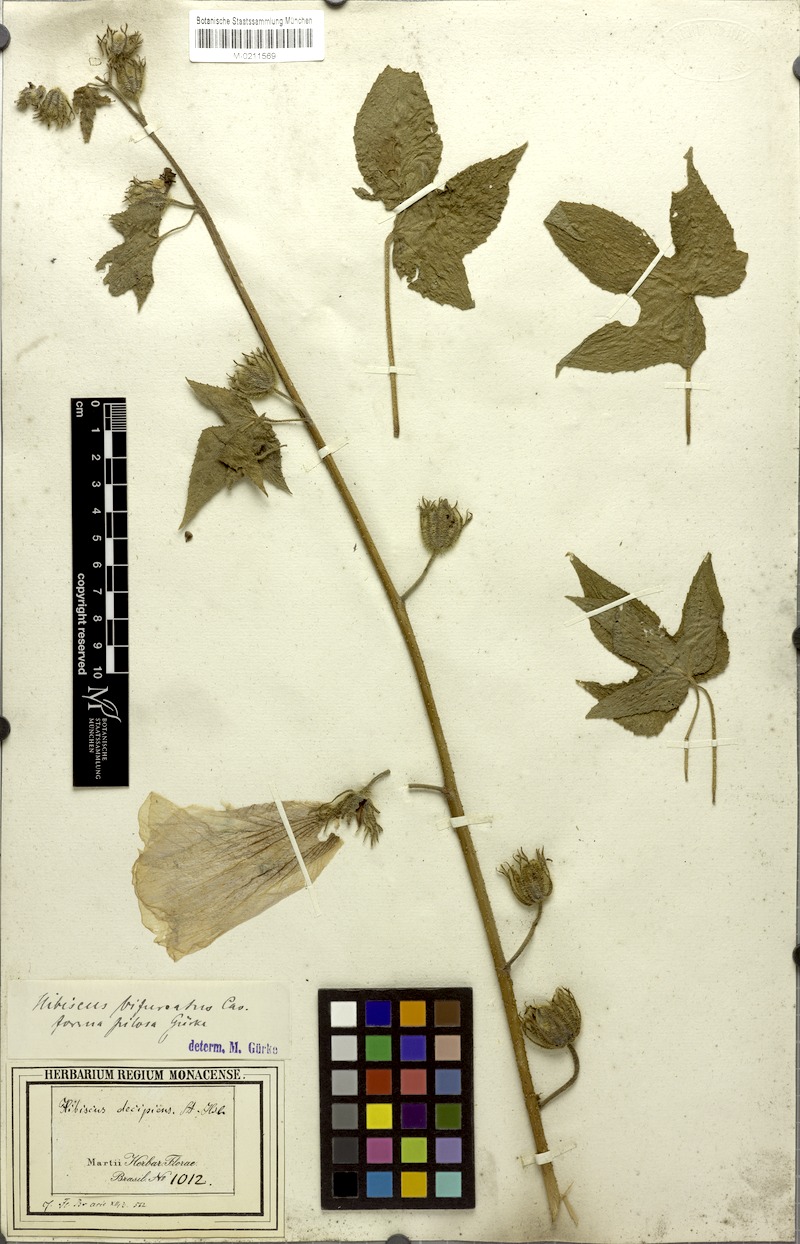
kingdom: Plantae
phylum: Tracheophyta
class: Magnoliopsida
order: Malvales
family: Malvaceae
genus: Hibiscus
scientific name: Hibiscus bifurcatus
